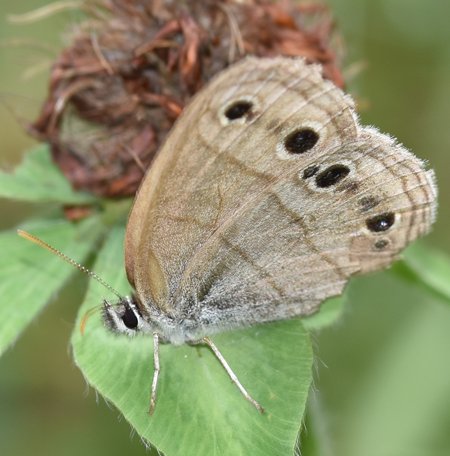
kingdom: Animalia
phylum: Arthropoda
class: Insecta
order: Lepidoptera
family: Nymphalidae
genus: Euptychia
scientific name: Euptychia cymela
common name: Little Wood Satyr
